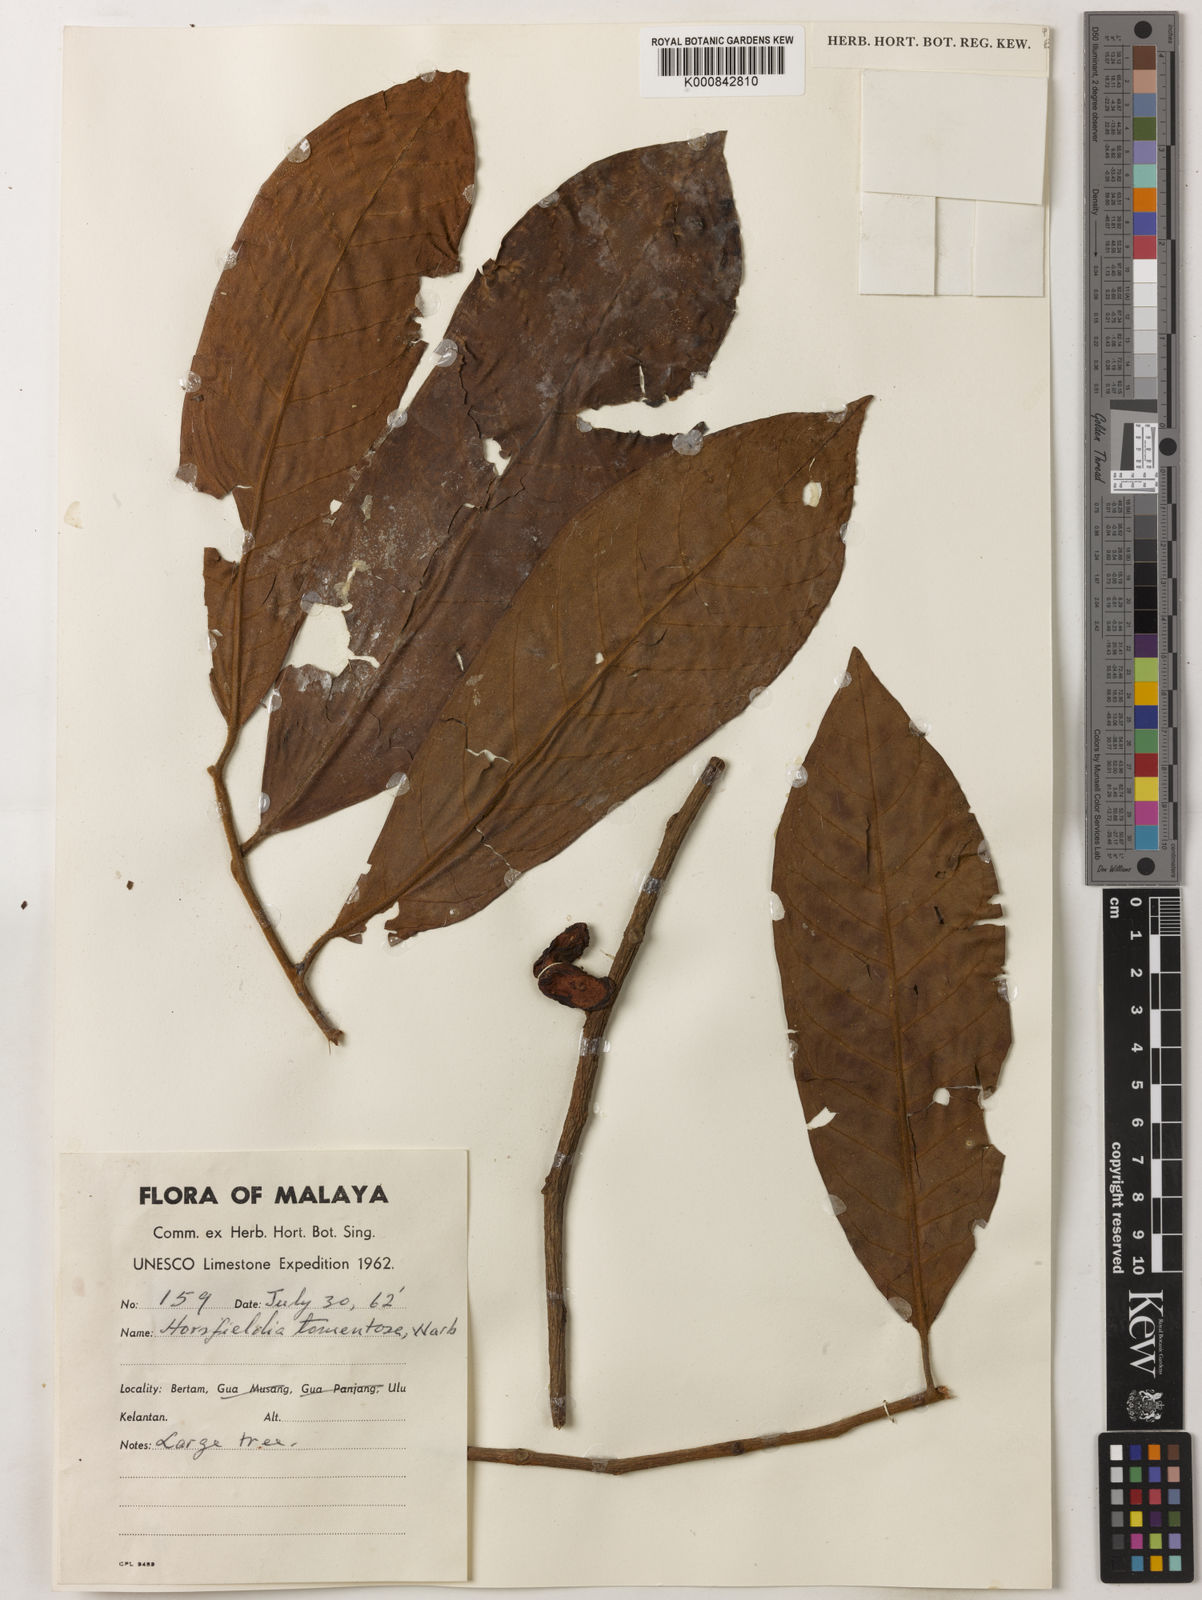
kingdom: Plantae
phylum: Tracheophyta
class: Magnoliopsida
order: Magnoliales
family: Myristicaceae
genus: Horsfieldia
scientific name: Horsfieldia tomentosa
